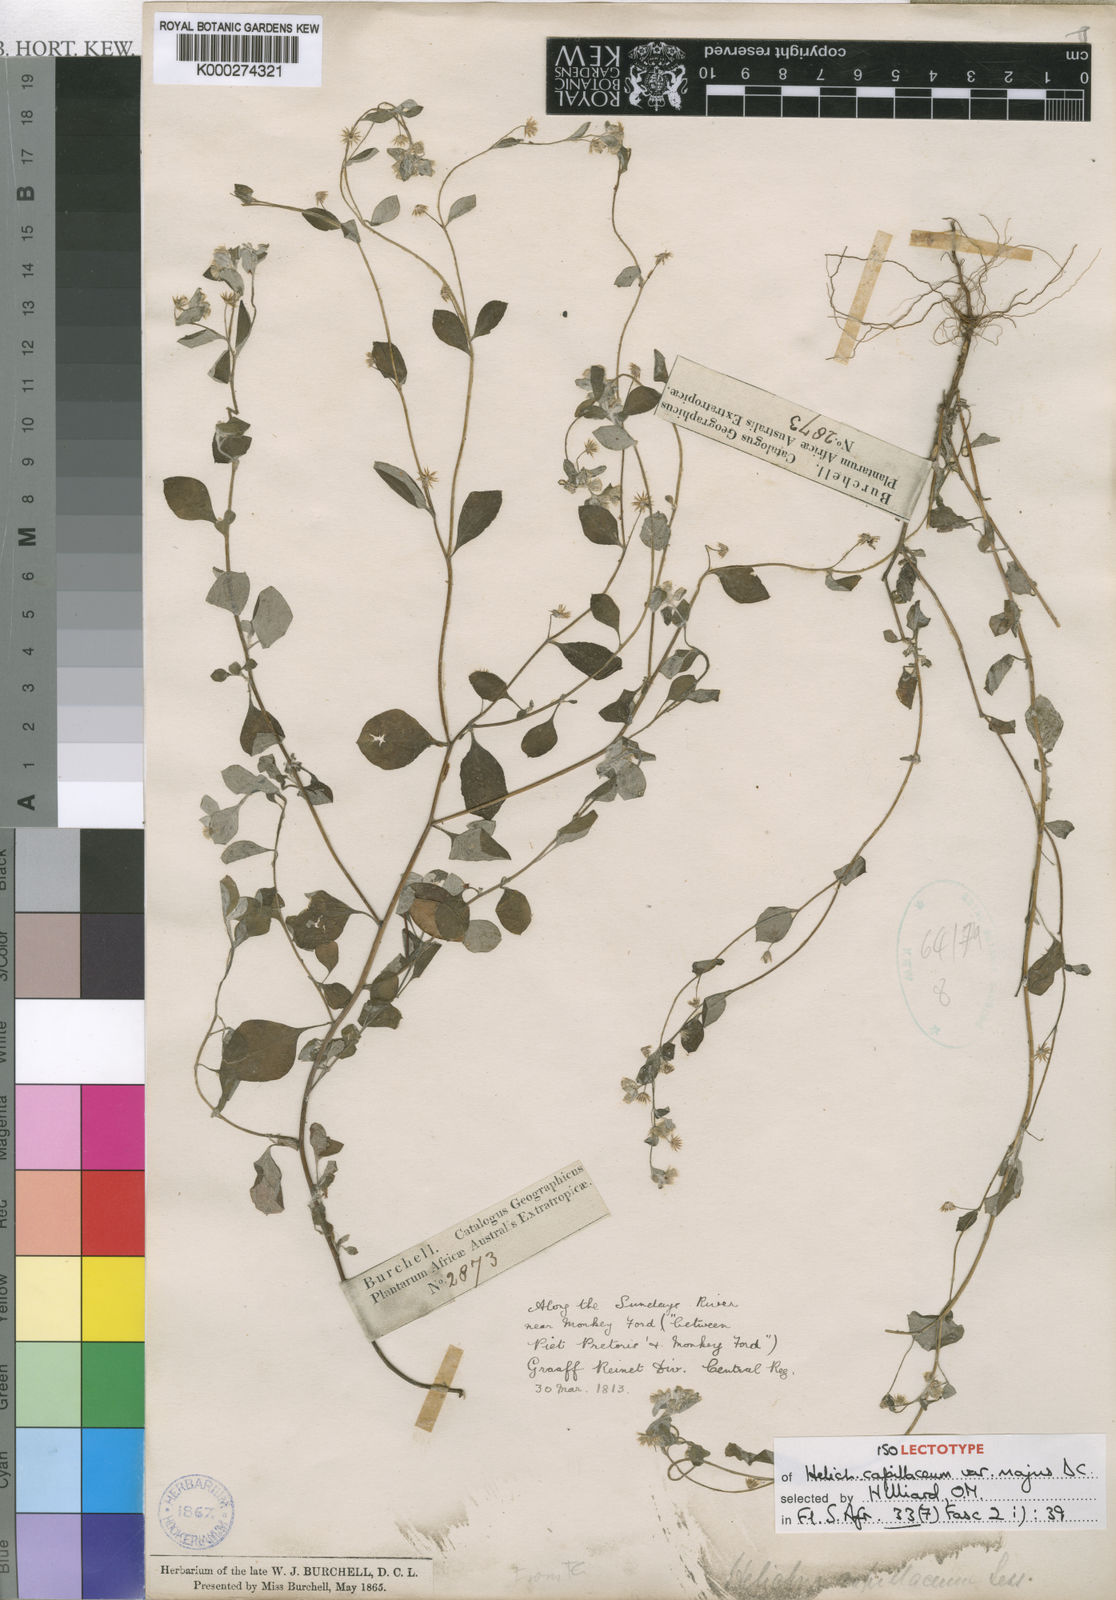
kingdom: Plantae
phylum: Tracheophyta
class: Magnoliopsida
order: Asterales
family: Asteraceae
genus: Troglophyton
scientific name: Troglophyton capillaceum
